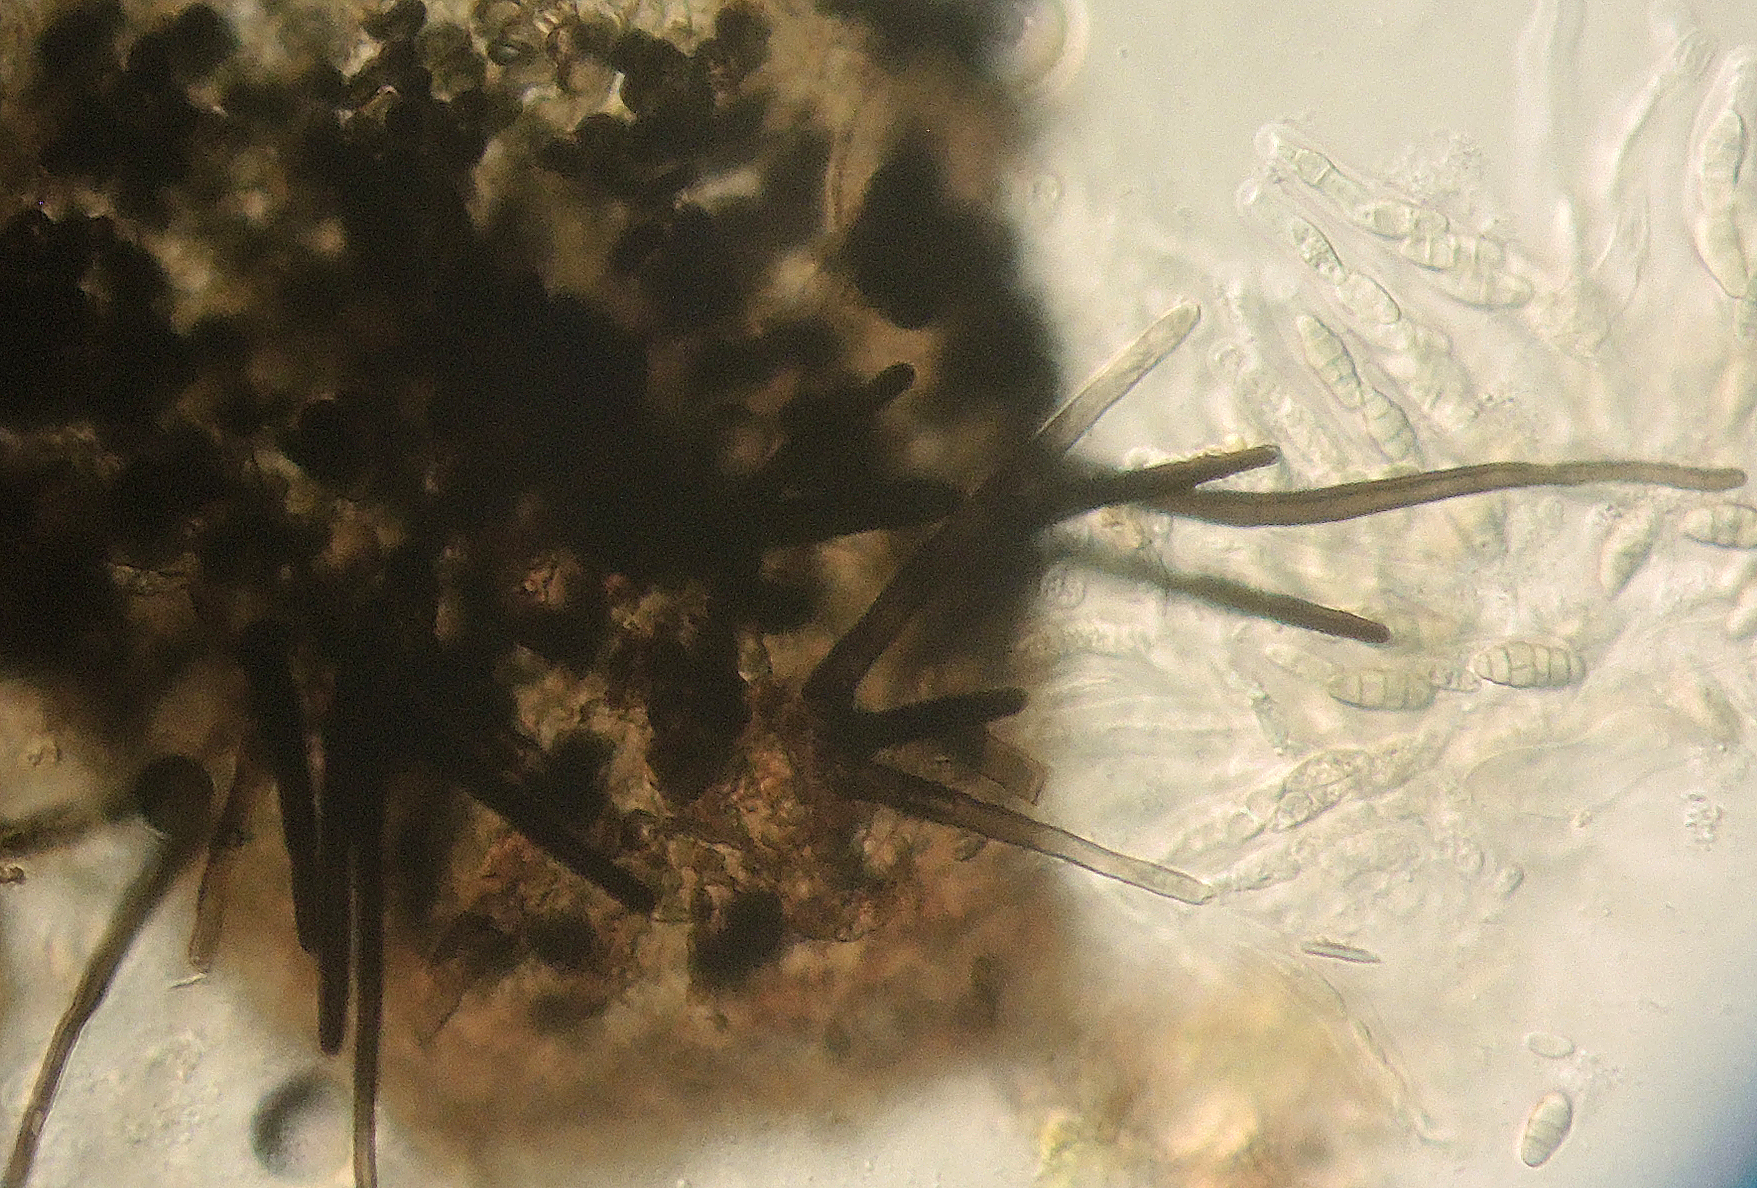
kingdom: Fungi
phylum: Ascomycota
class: Eurotiomycetes
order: Chaetothyriales
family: Herpotrichiellaceae
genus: Capronia
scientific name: Capronia pulcherrima
